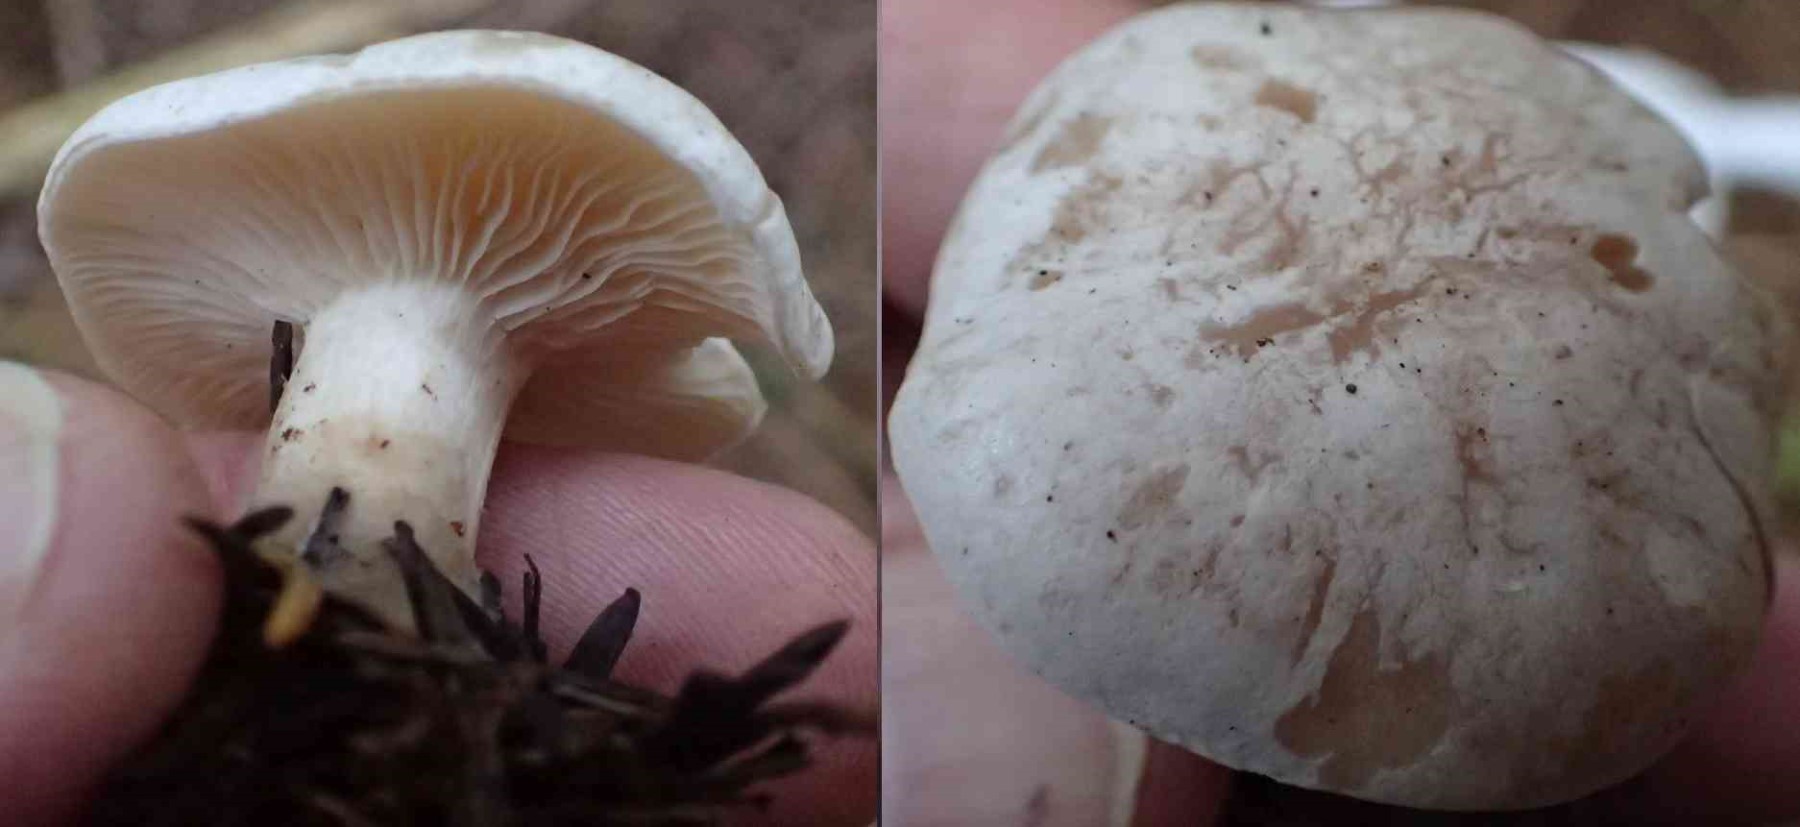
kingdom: Fungi
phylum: Basidiomycota
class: Agaricomycetes
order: Agaricales
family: Tricholomataceae
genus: Clitocybe
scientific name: Clitocybe
